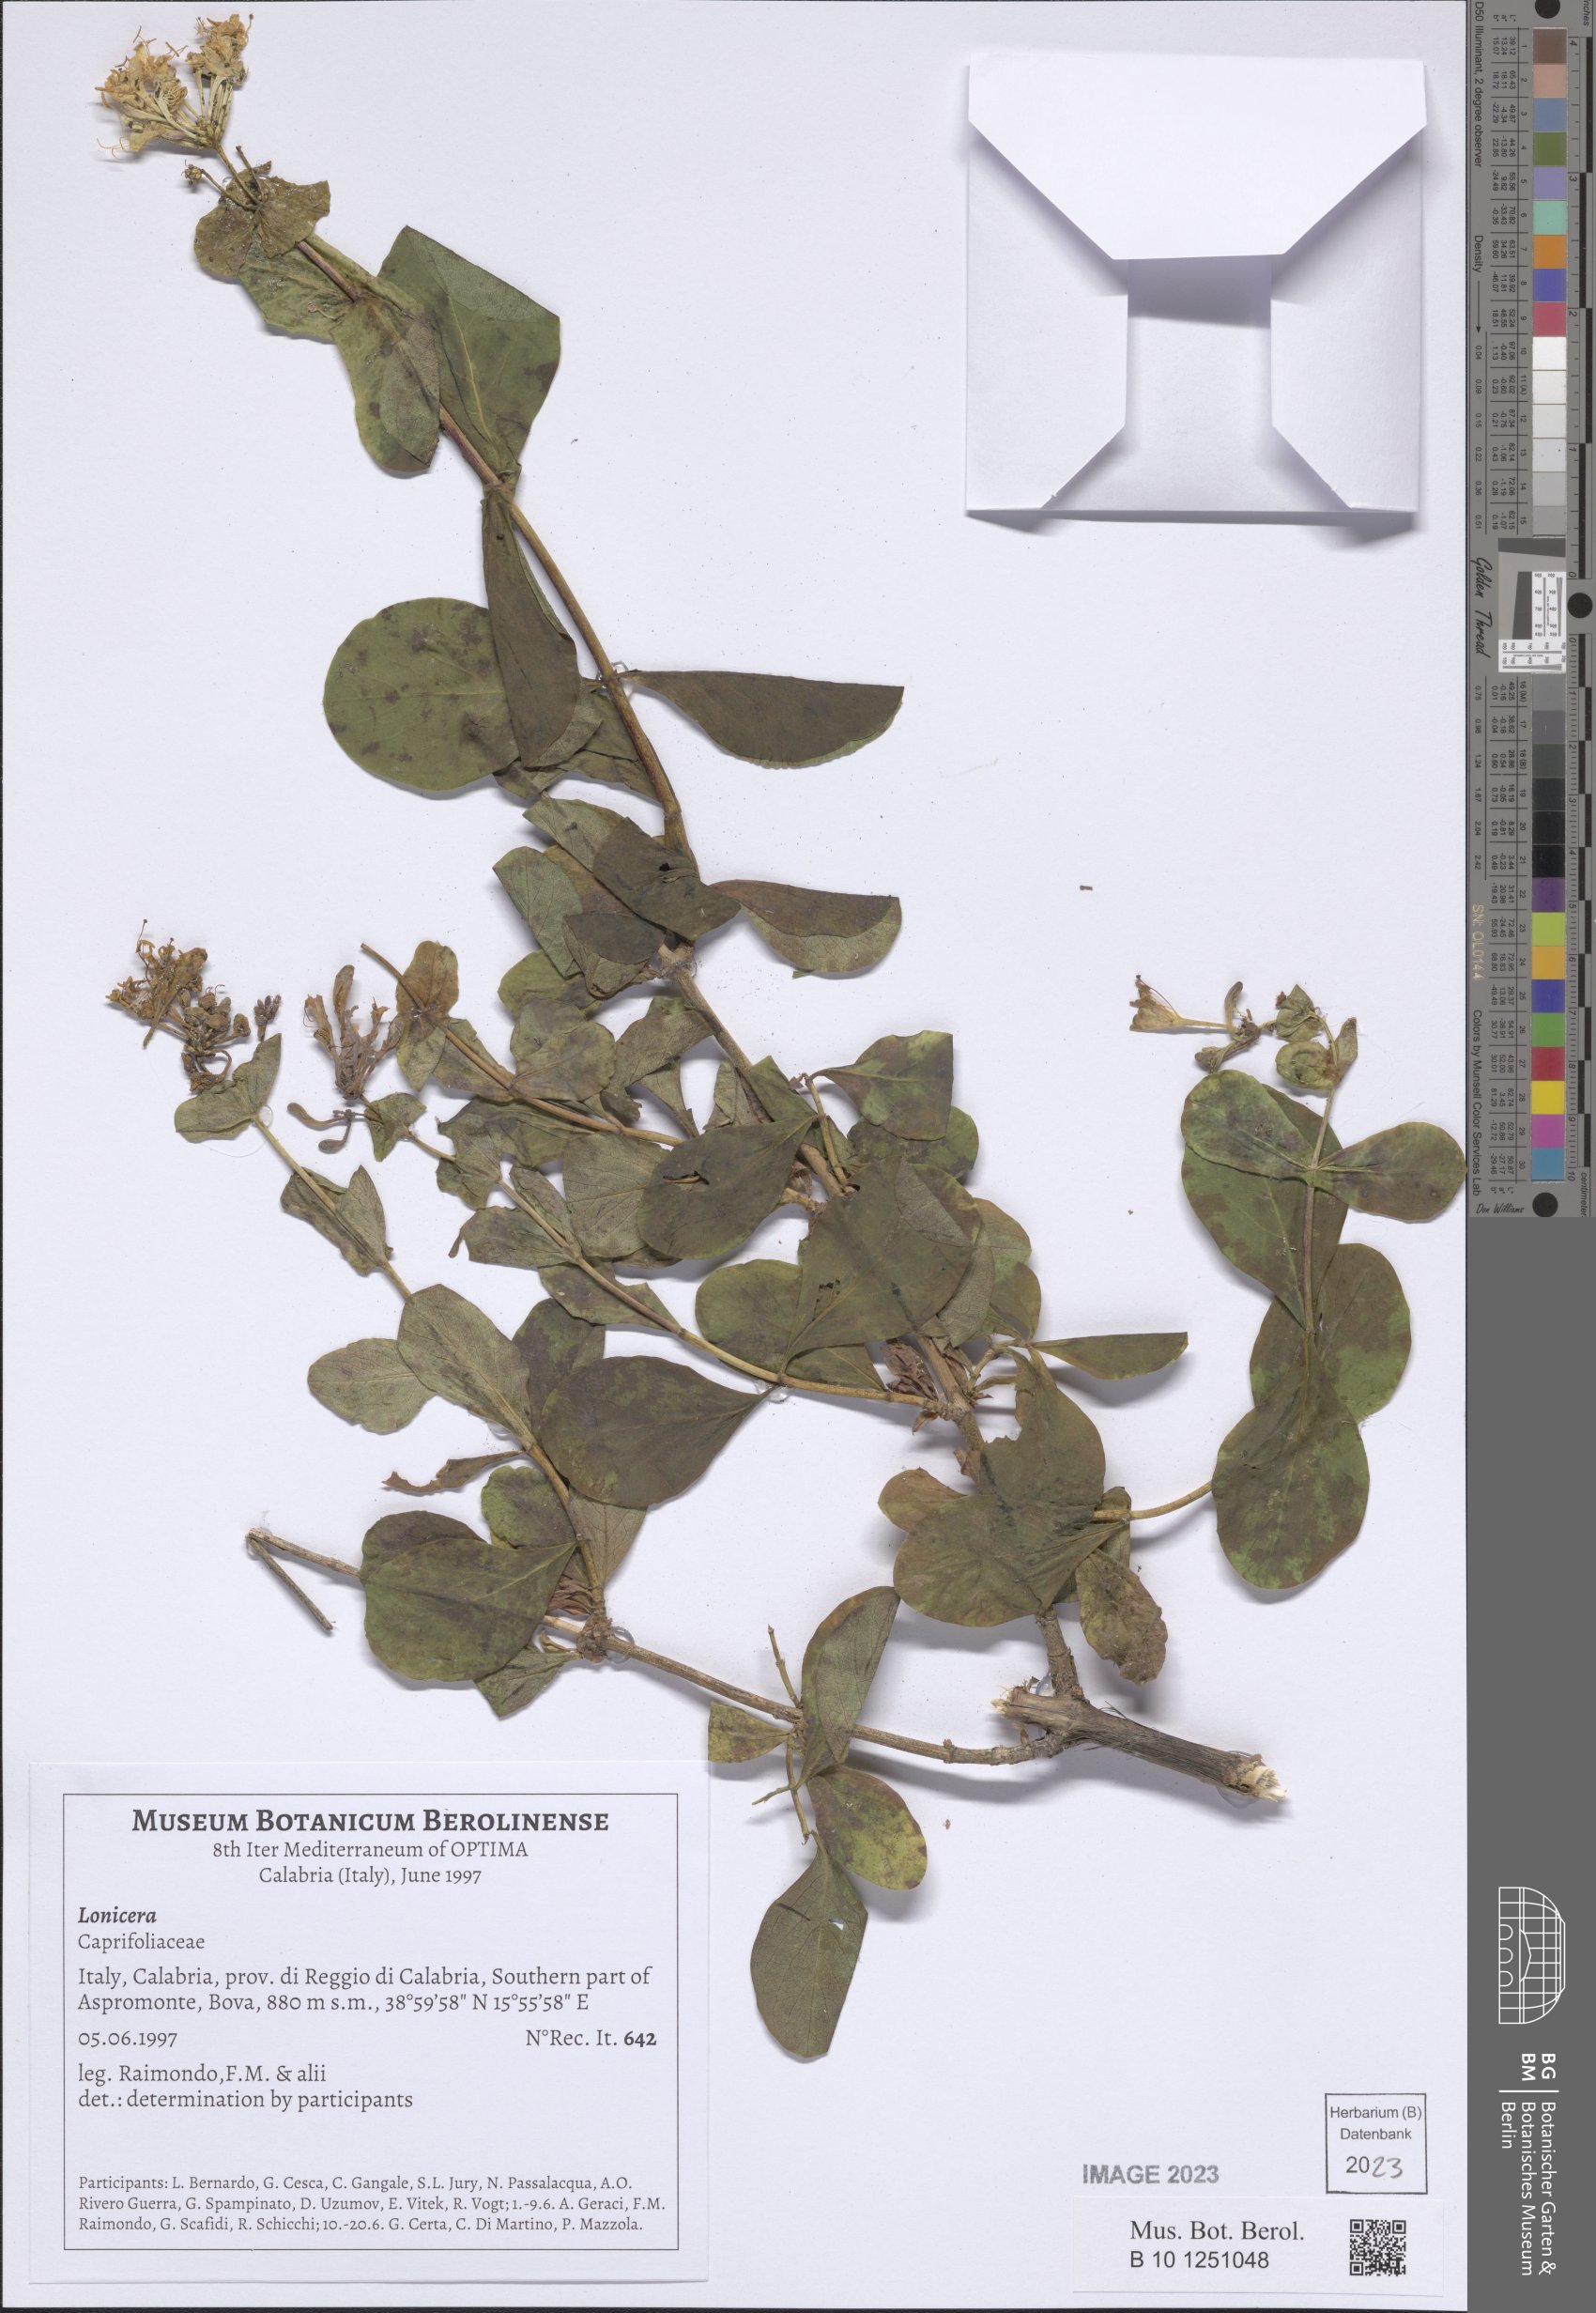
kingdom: Plantae
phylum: Tracheophyta
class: Magnoliopsida
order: Dipsacales
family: Caprifoliaceae
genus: Lonicera
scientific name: Lonicera
